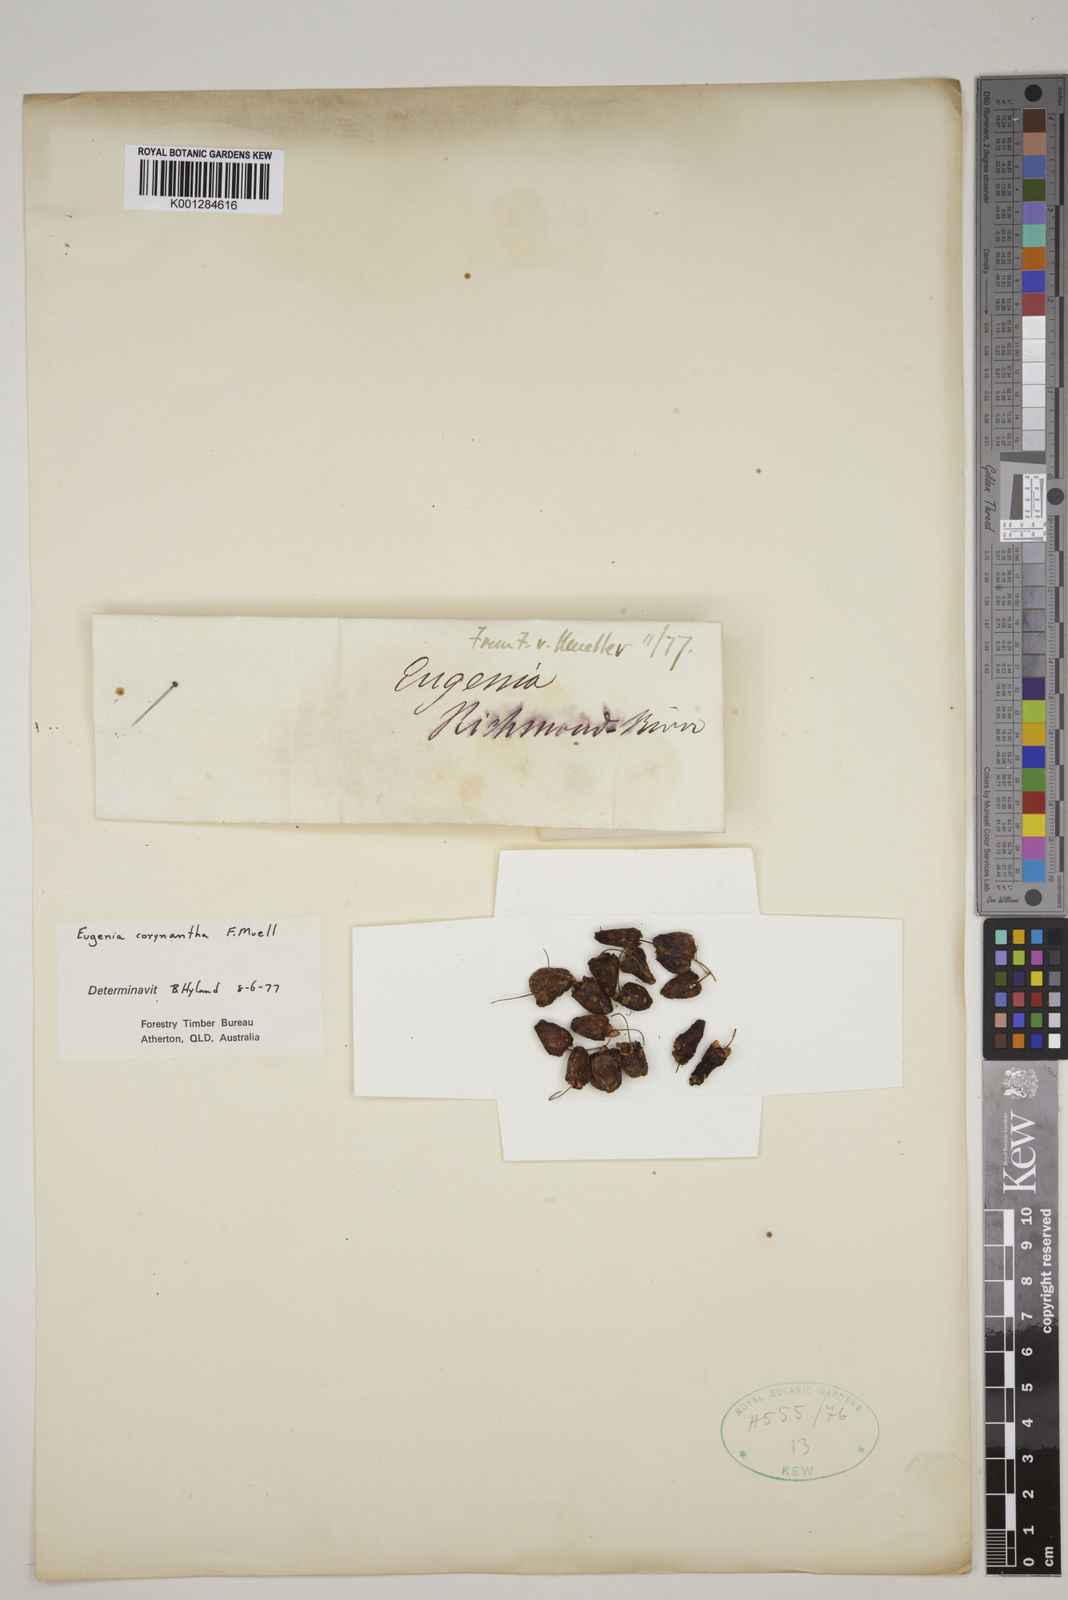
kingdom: Plantae
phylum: Tracheophyta
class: Magnoliopsida
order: Myrtales
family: Myrtaceae
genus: Syzygium
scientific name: Syzygium corynanthum
